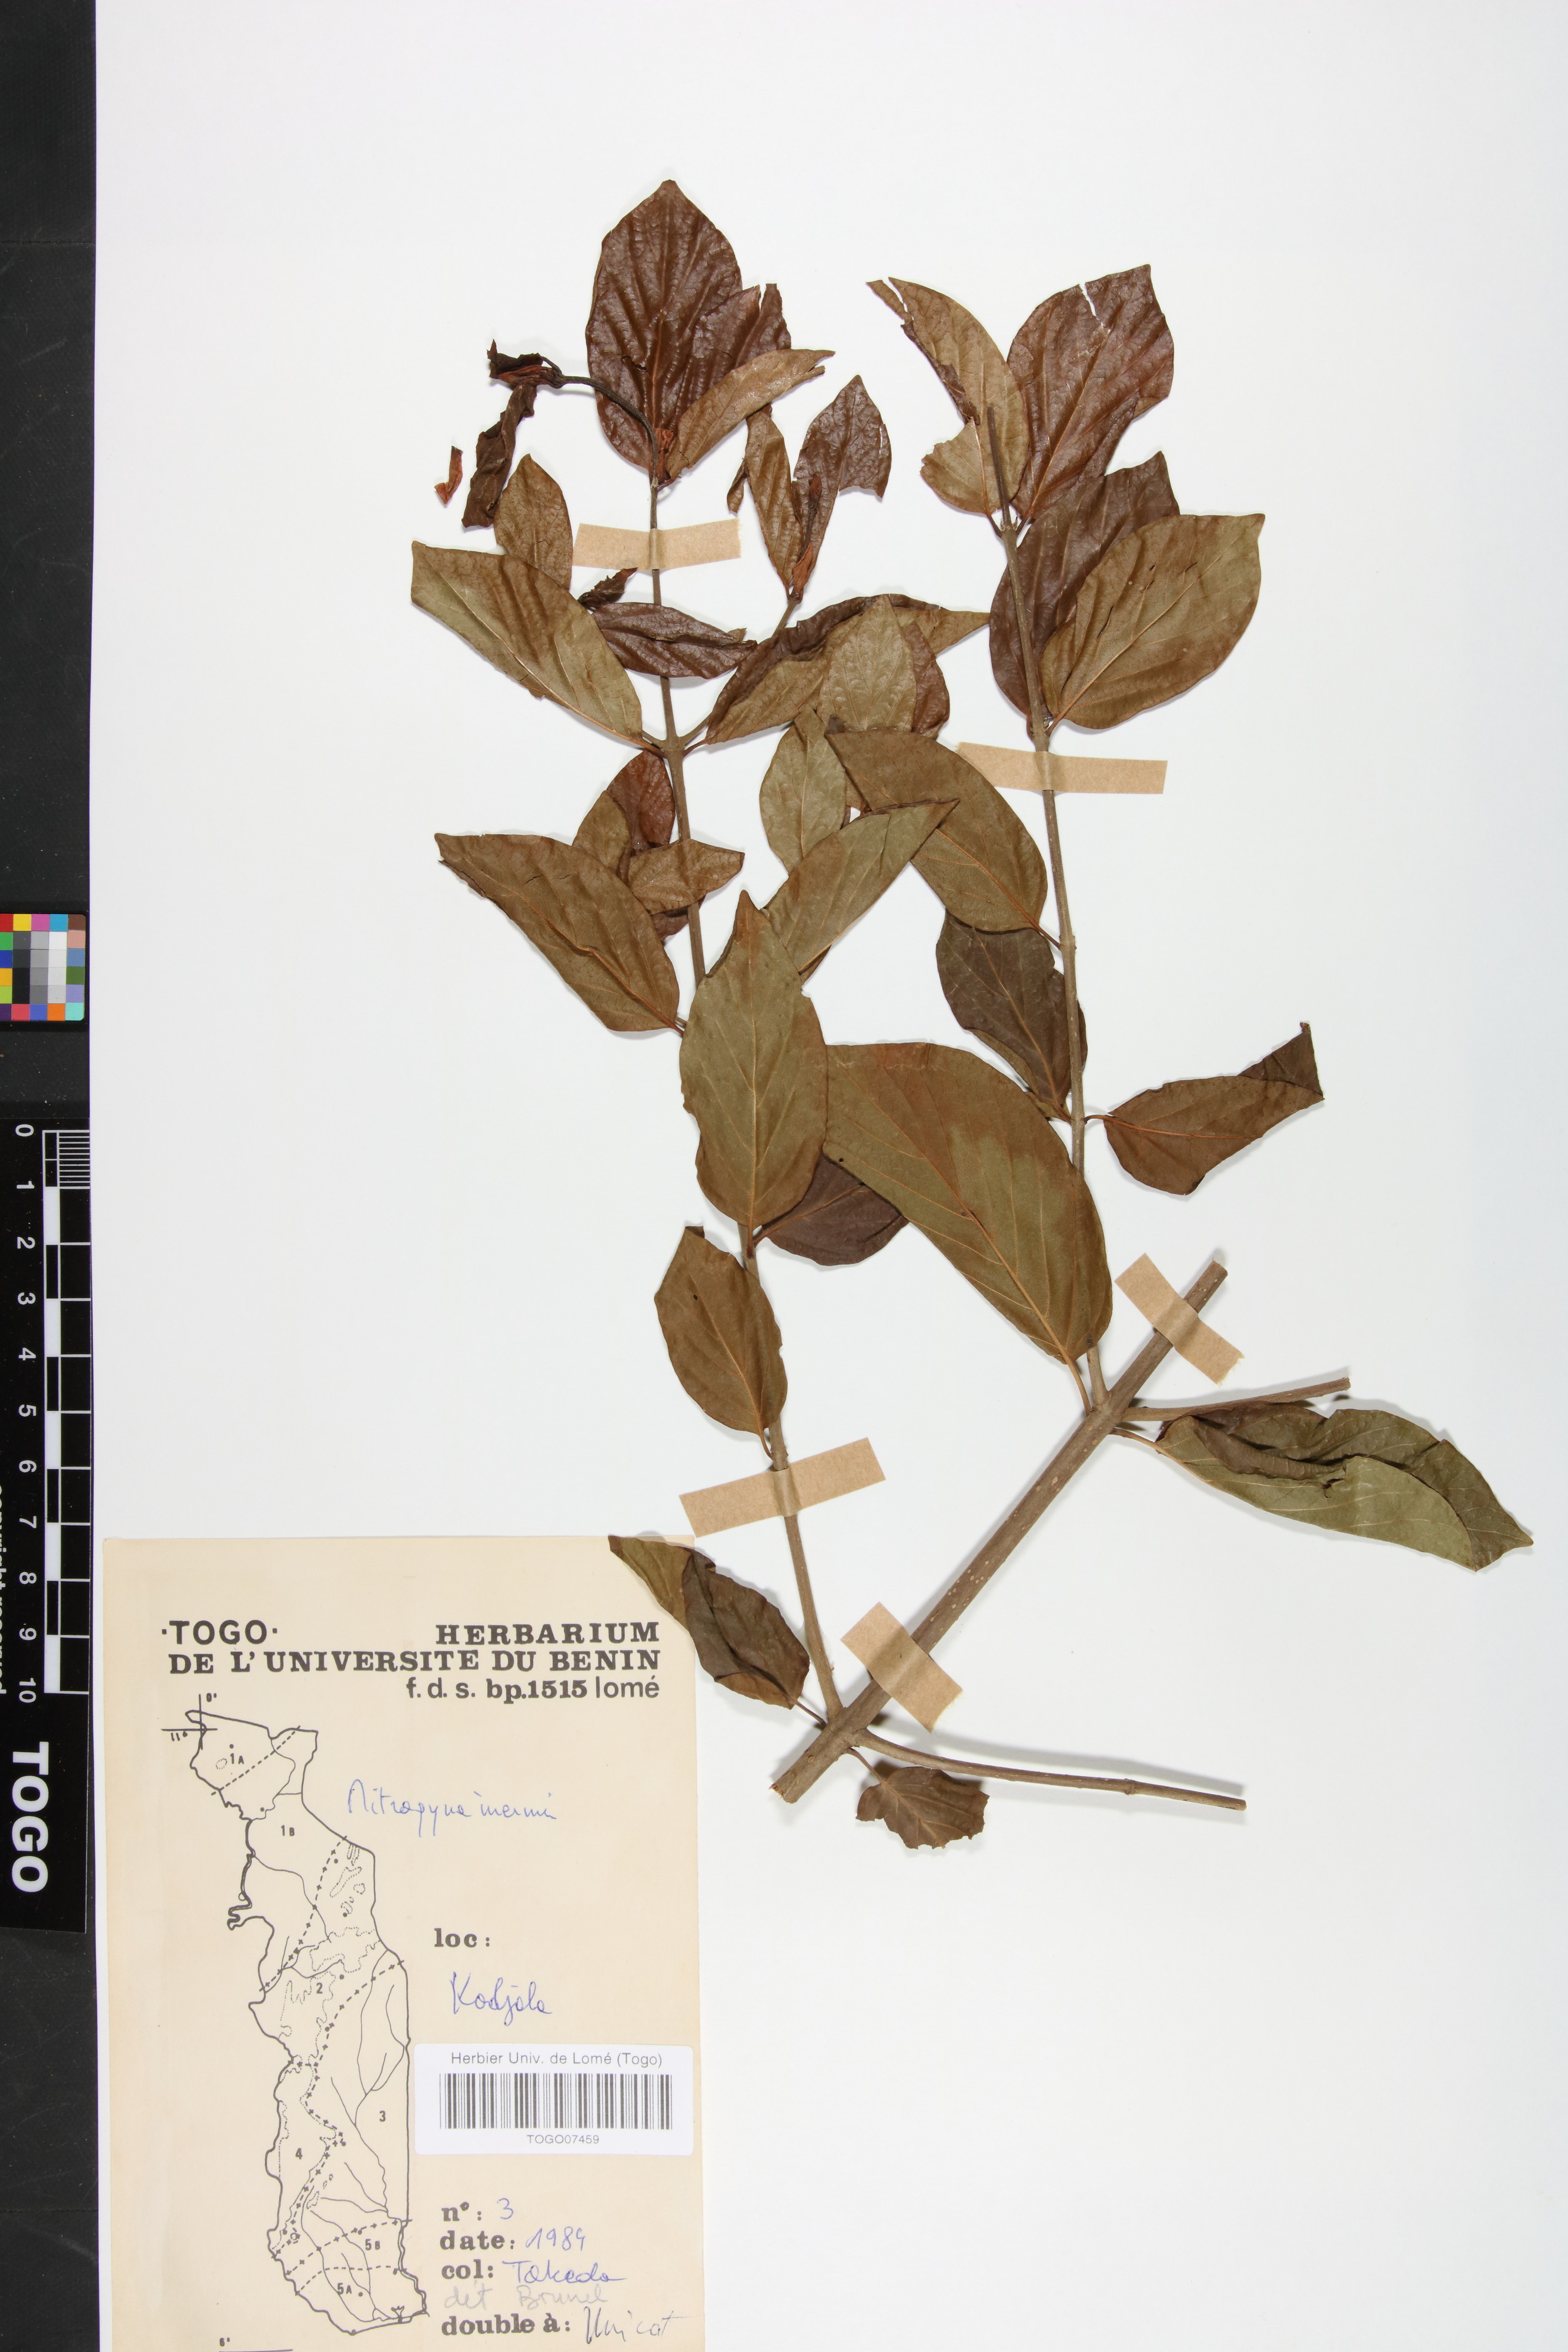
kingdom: Plantae
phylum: Tracheophyta
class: Magnoliopsida
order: Gentianales
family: Rubiaceae
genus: Mitragyna
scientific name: Mitragyna inermis
